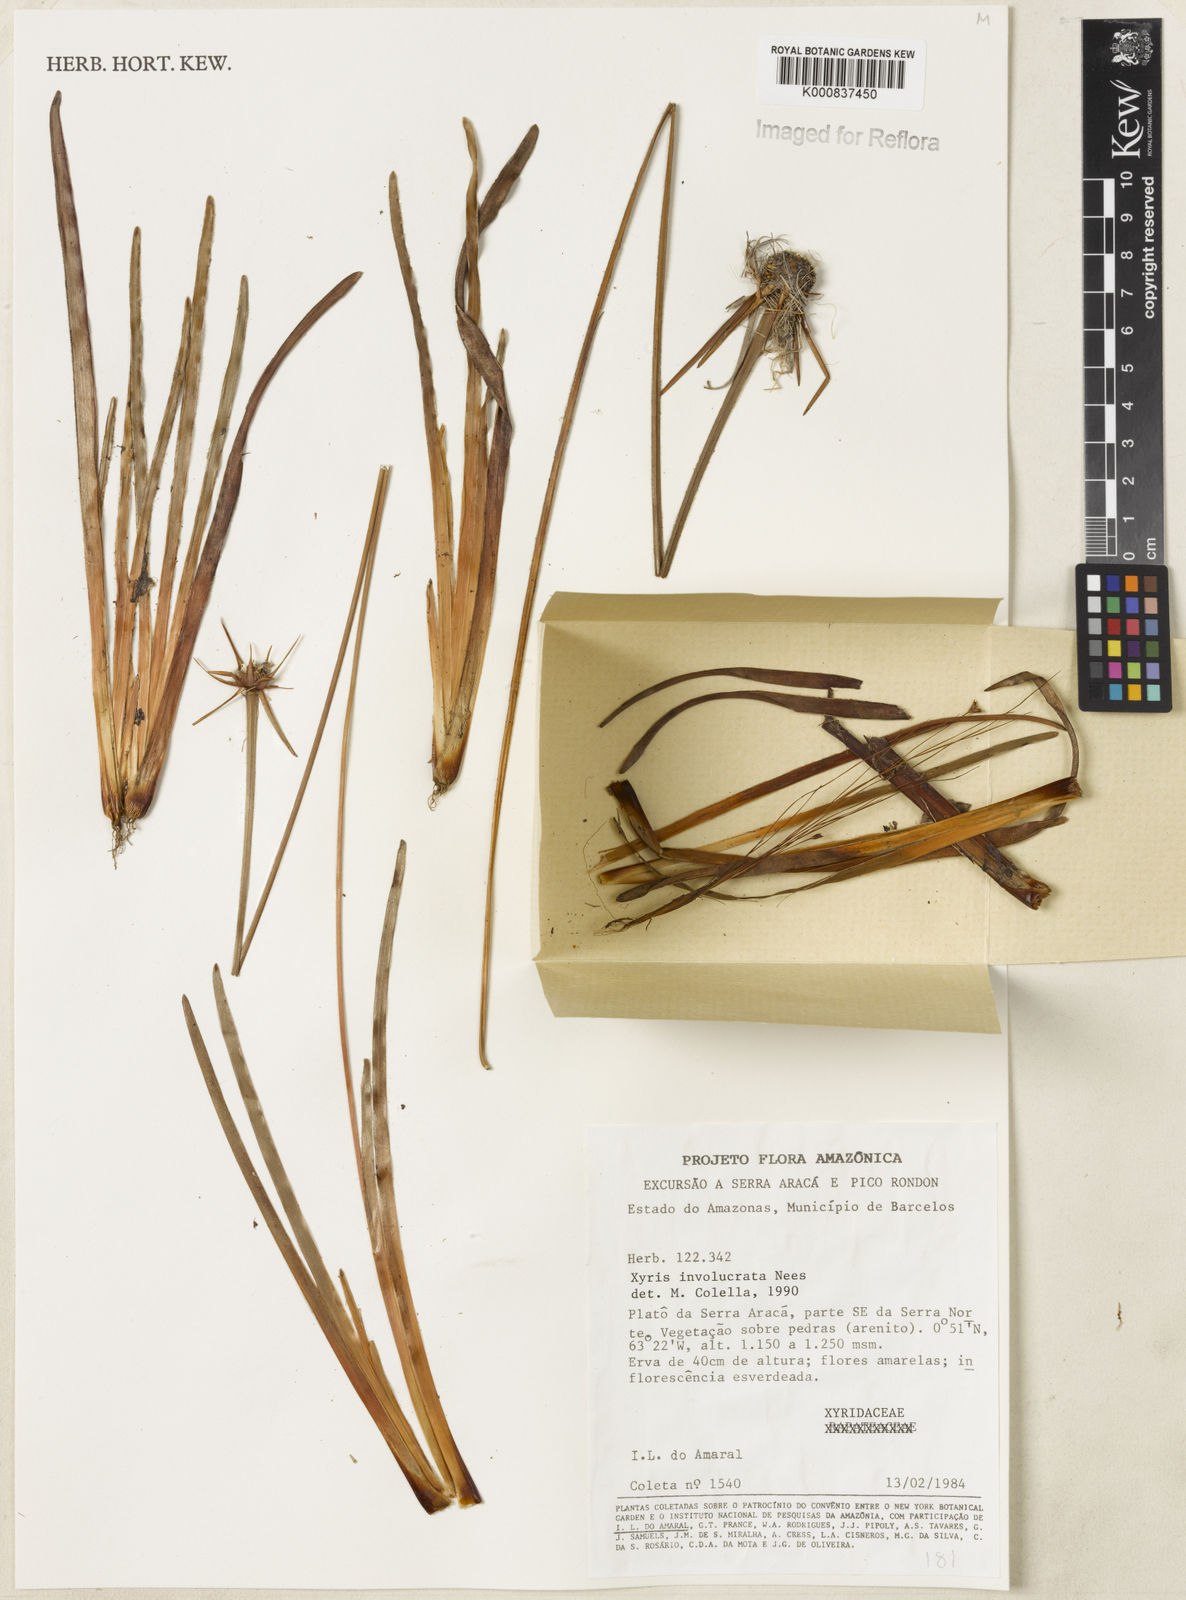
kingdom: Plantae
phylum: Tracheophyta
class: Liliopsida
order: Poales
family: Xyridaceae
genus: Xyris
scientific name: Xyris involucrata
